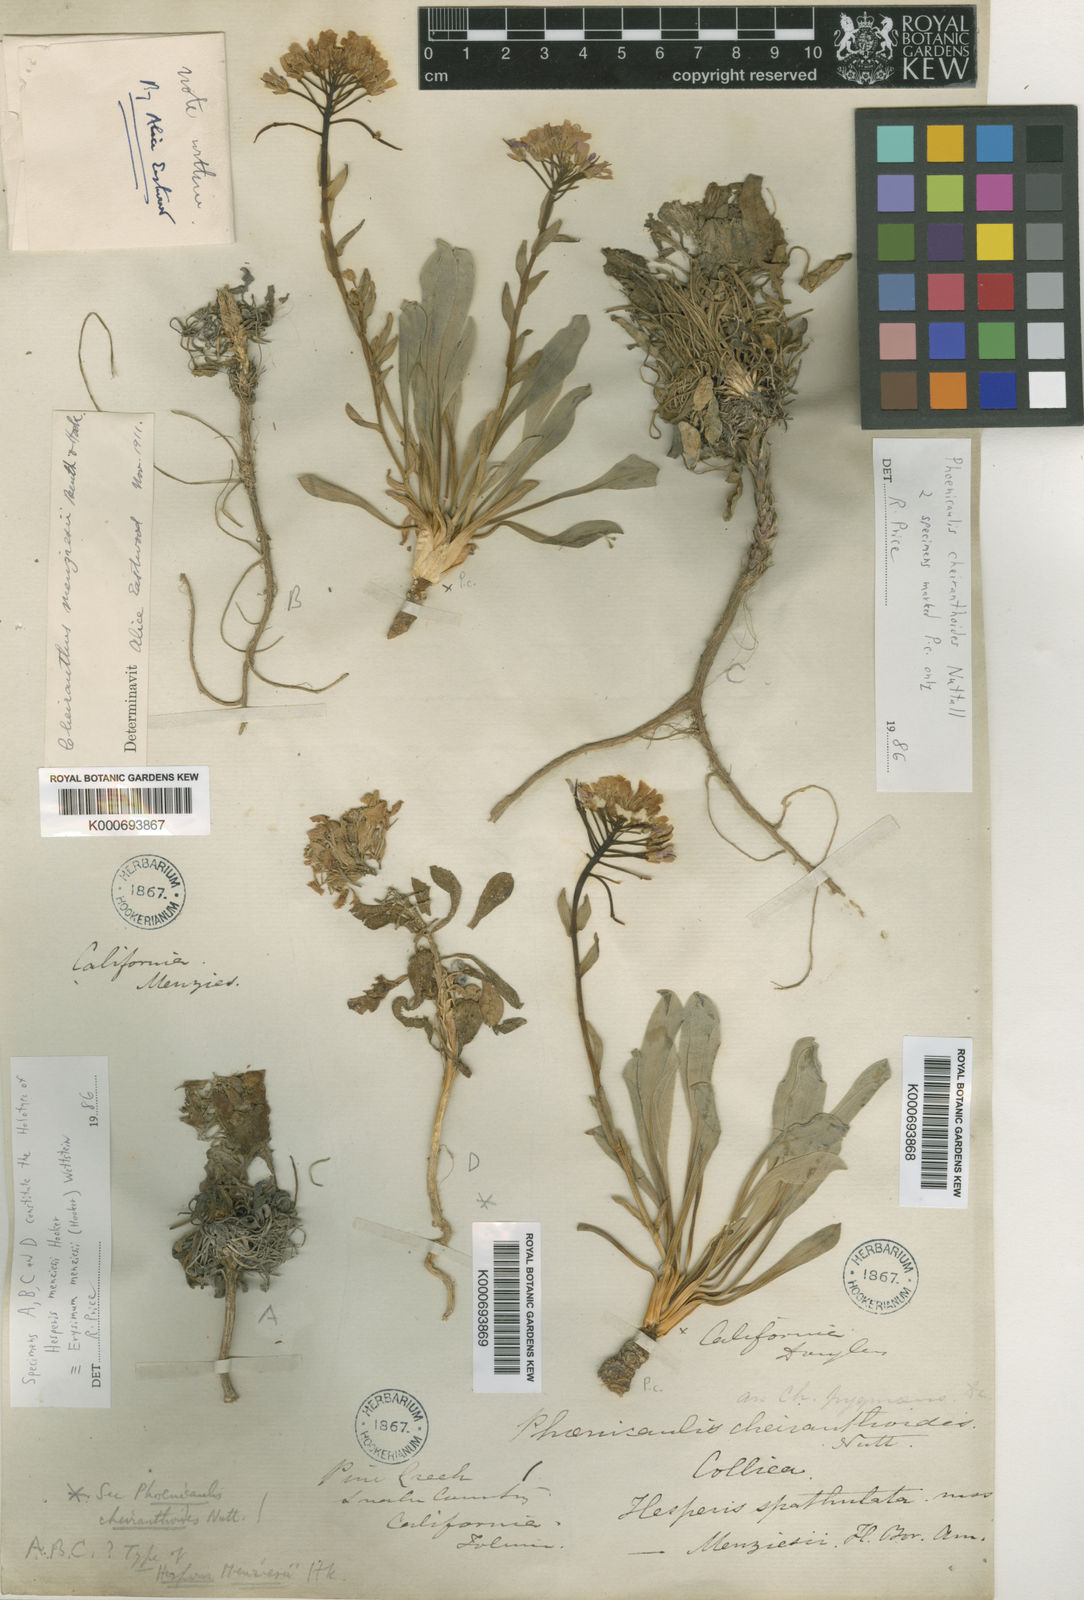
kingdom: Plantae
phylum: Tracheophyta
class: Magnoliopsida
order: Brassicales
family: Brassicaceae
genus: Erysimum
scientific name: Erysimum menziesii
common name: Menzies's wallflower
